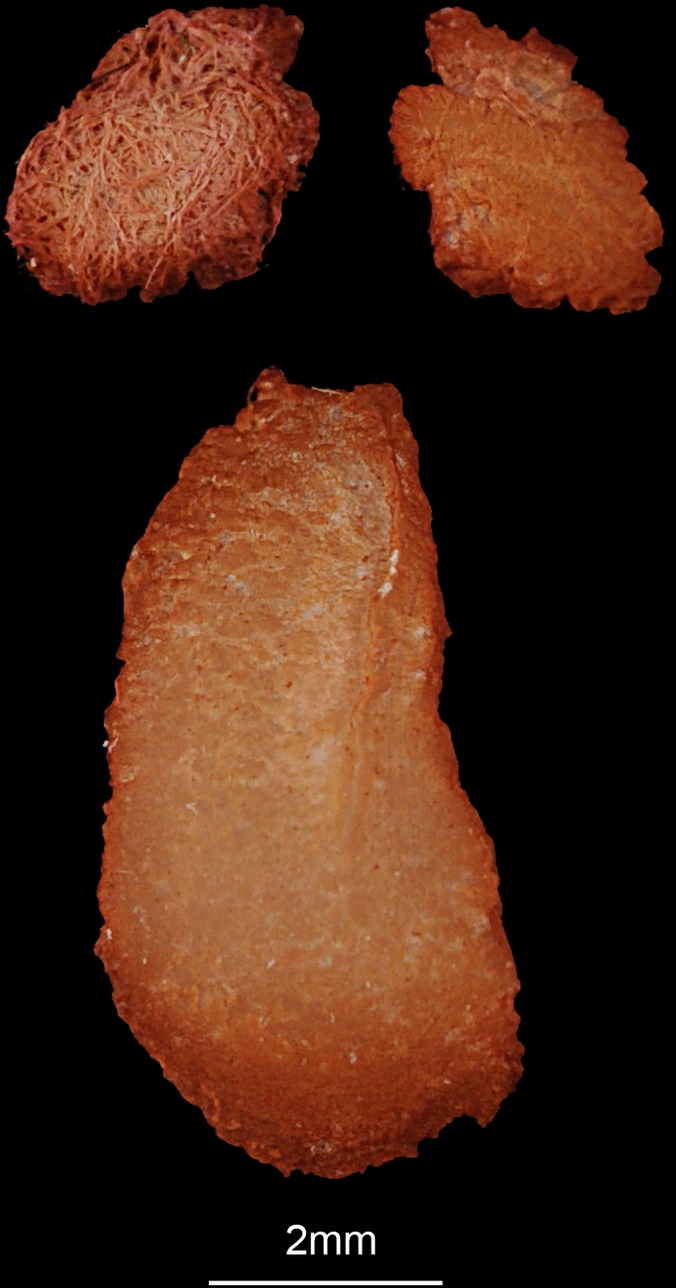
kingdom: Animalia
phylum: Chordata
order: Siluriformes
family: Claroteidae
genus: Auchenoglanis
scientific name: Auchenoglanis biscutatus
